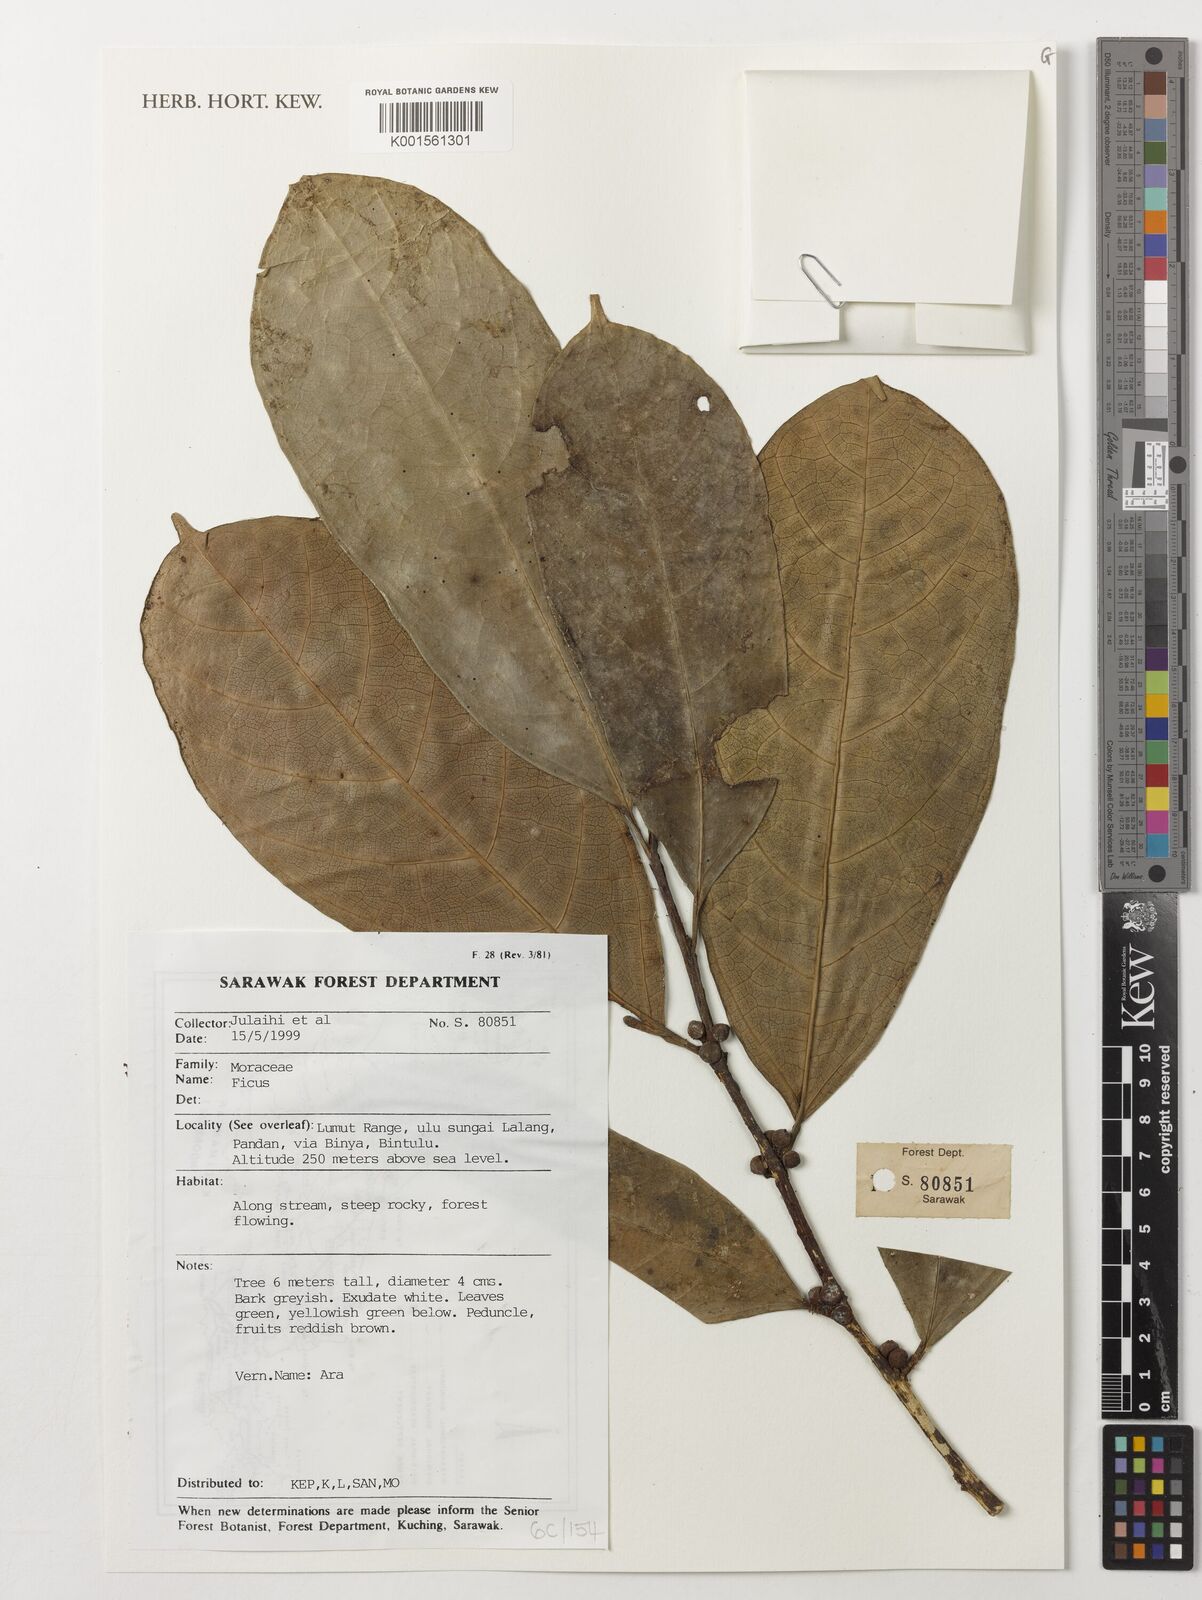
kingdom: Plantae
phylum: Tracheophyta
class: Magnoliopsida
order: Rosales
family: Moraceae
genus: Ficus
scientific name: Ficus
